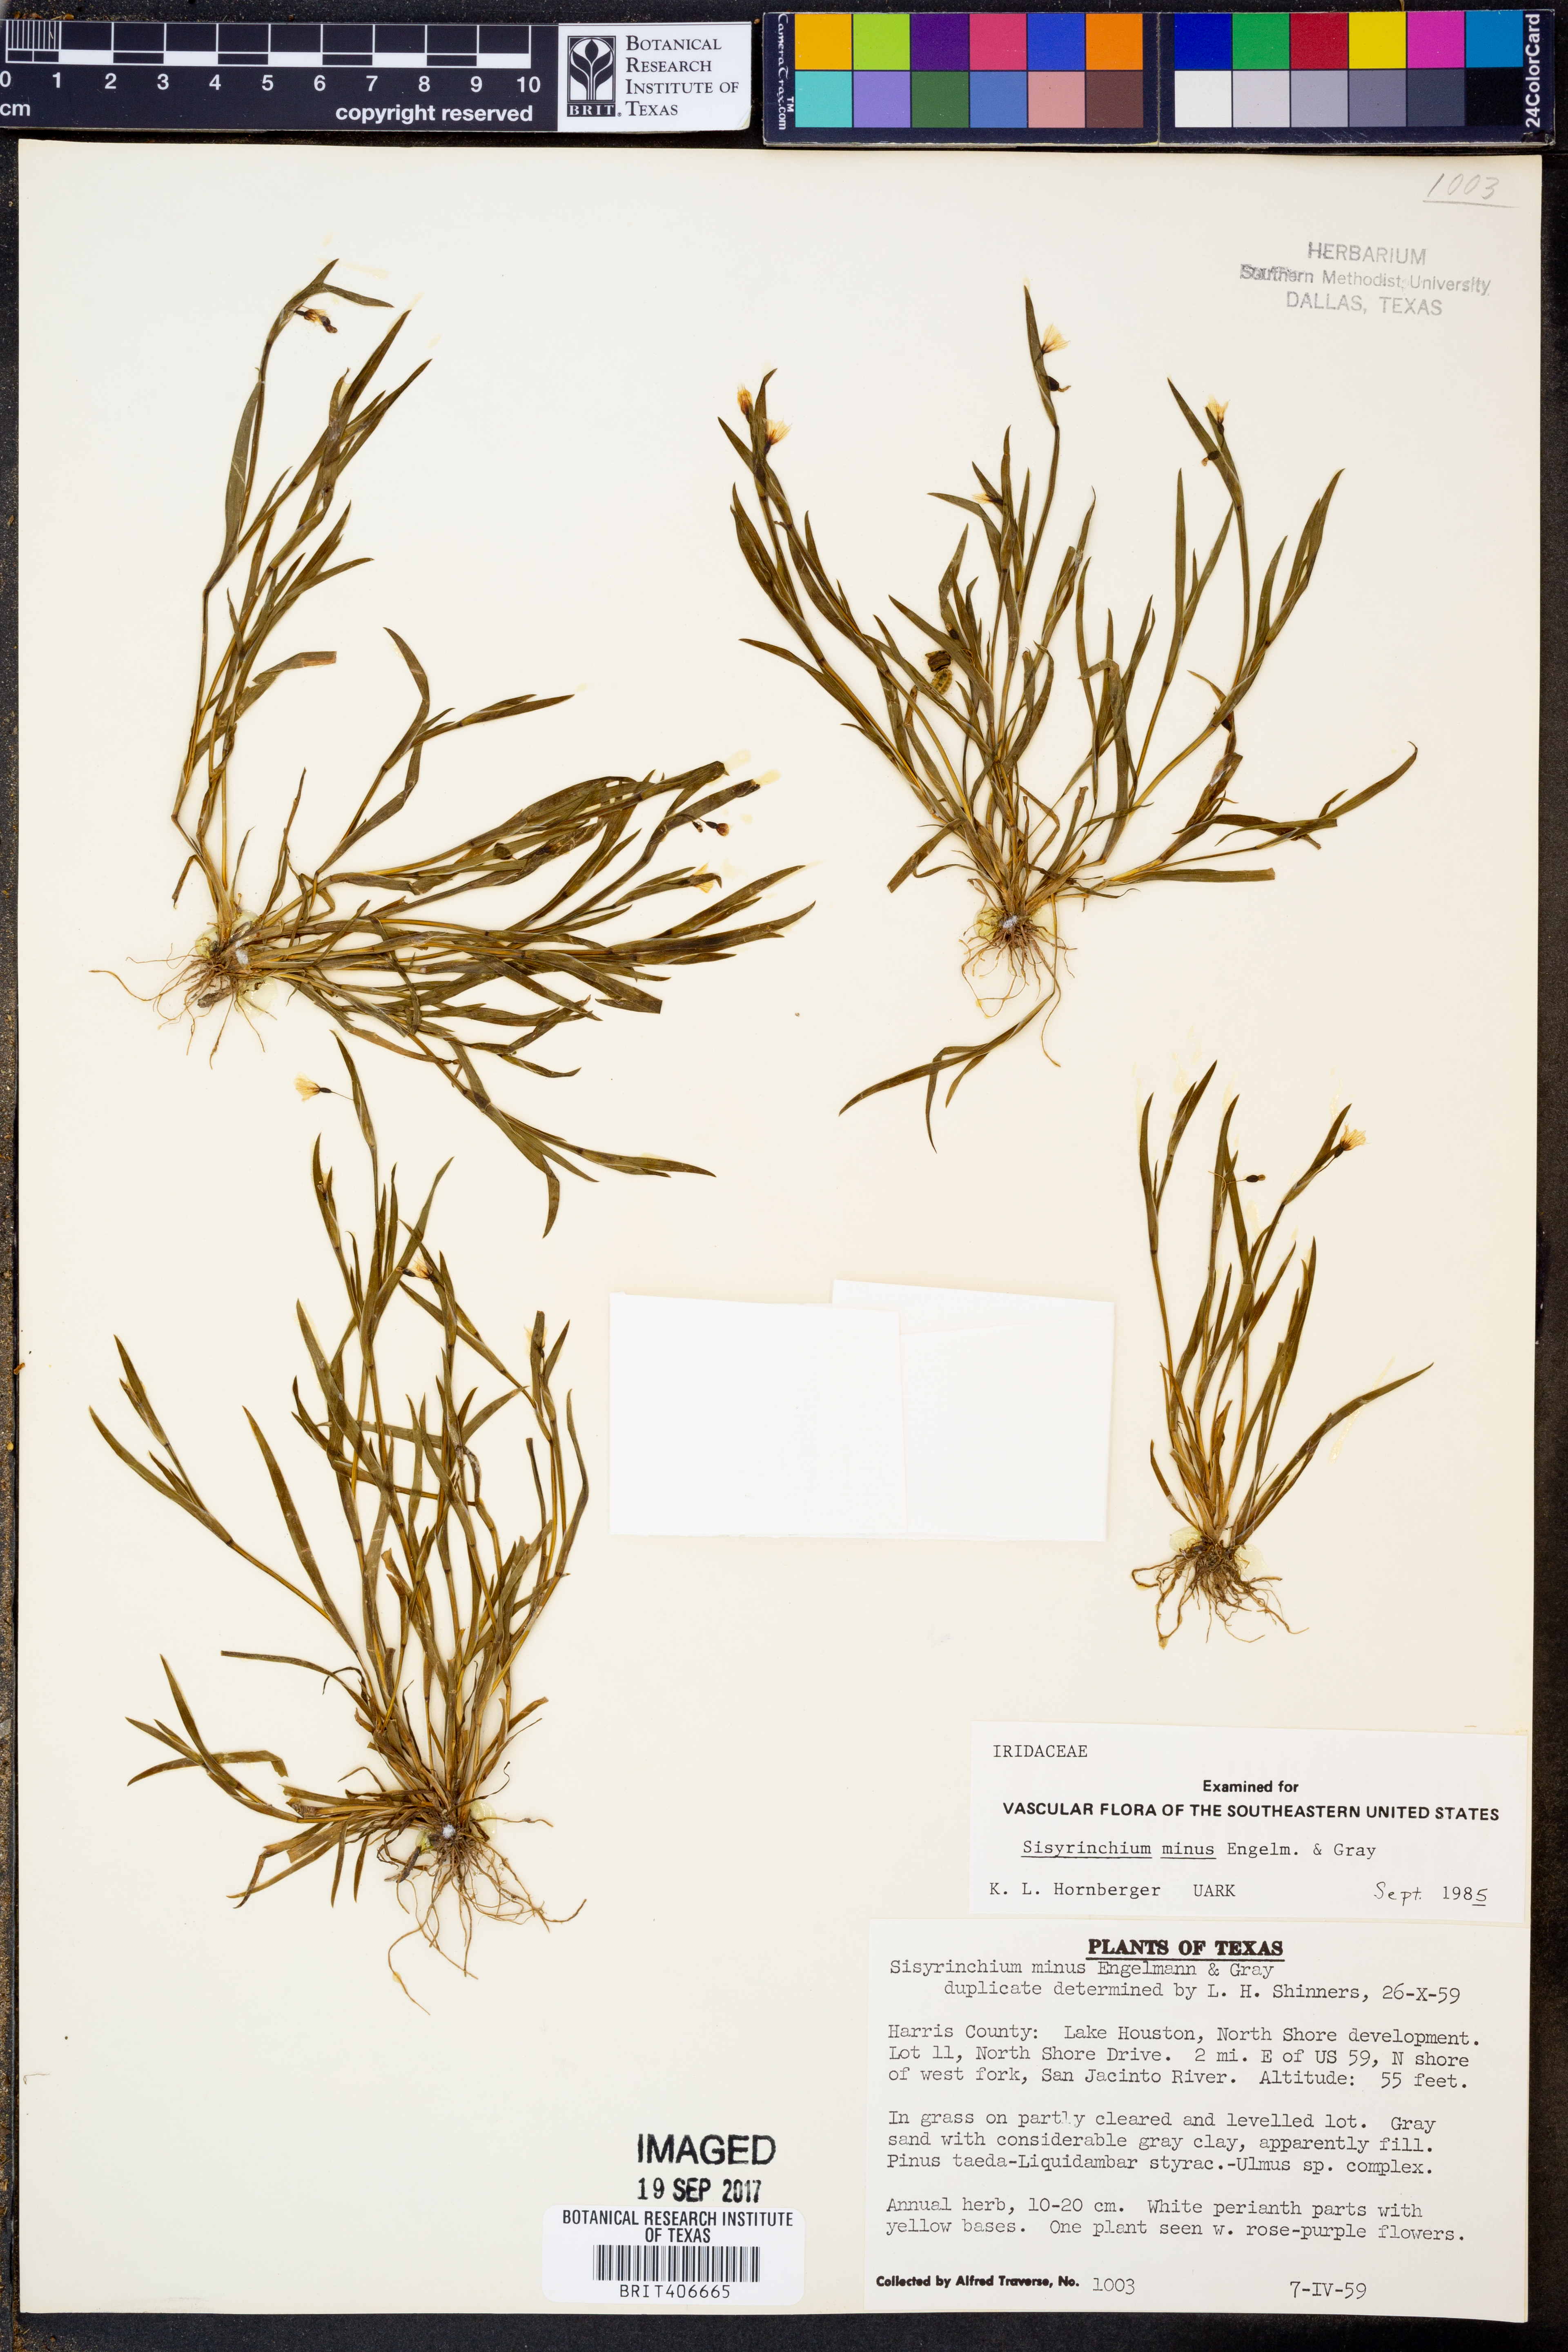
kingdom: Plantae
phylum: Tracheophyta
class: Liliopsida
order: Asparagales
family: Iridaceae
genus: Sisyrinchium
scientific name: Sisyrinchium minus
